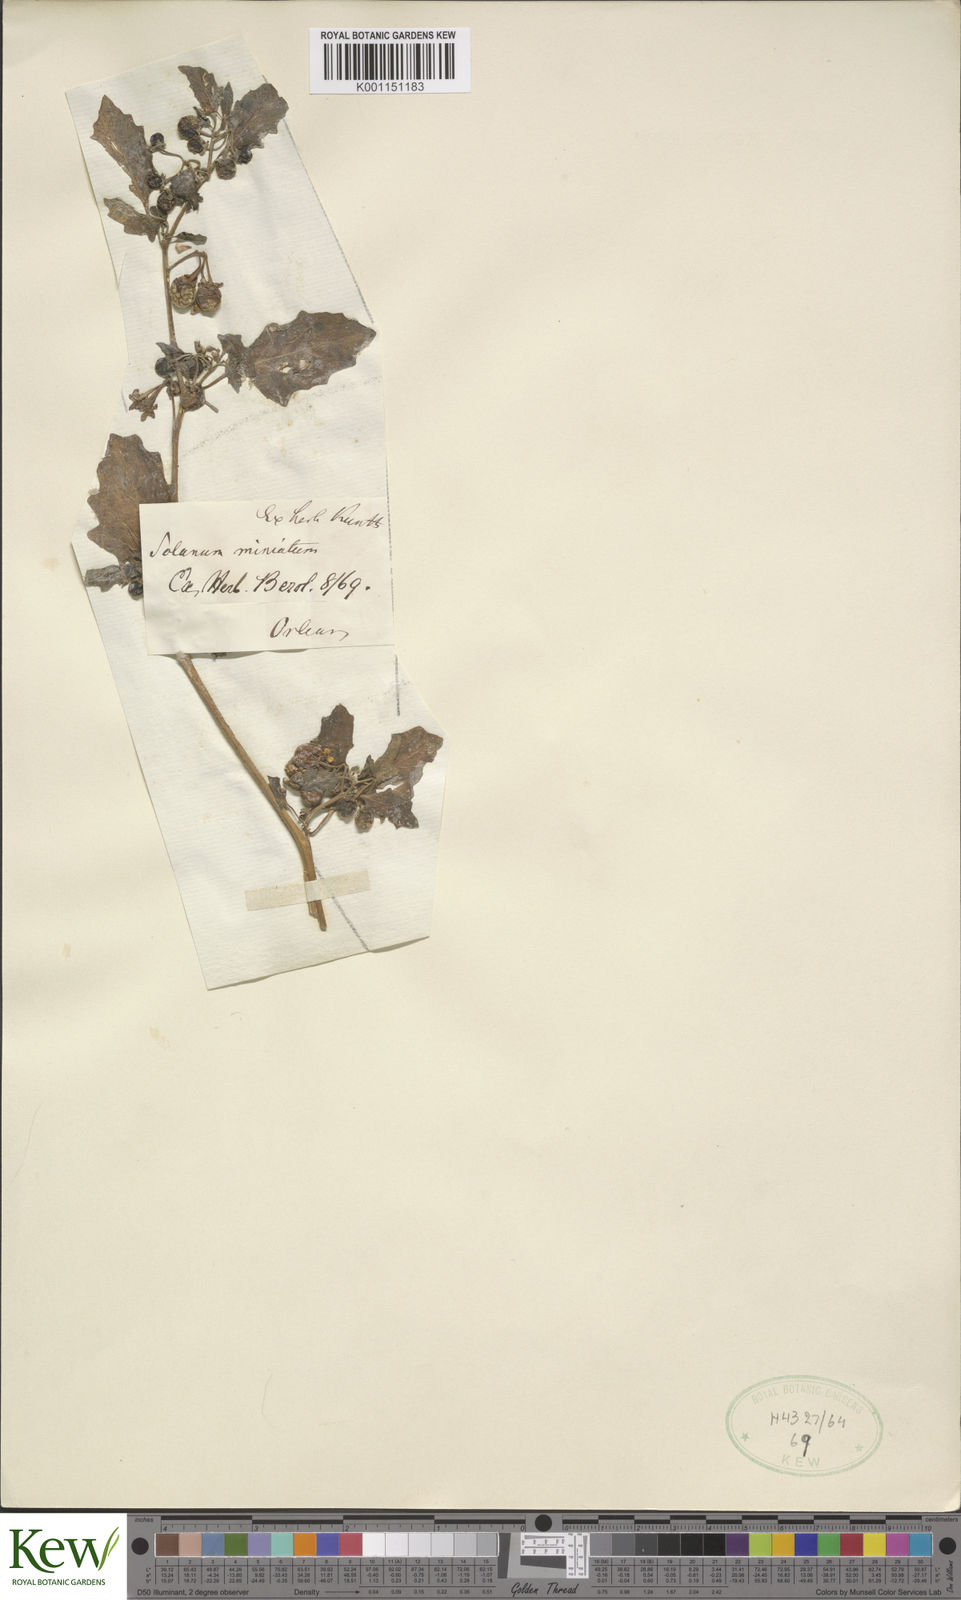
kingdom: Plantae
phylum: Tracheophyta
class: Magnoliopsida
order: Solanales
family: Solanaceae
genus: Solanum
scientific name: Solanum alatum
